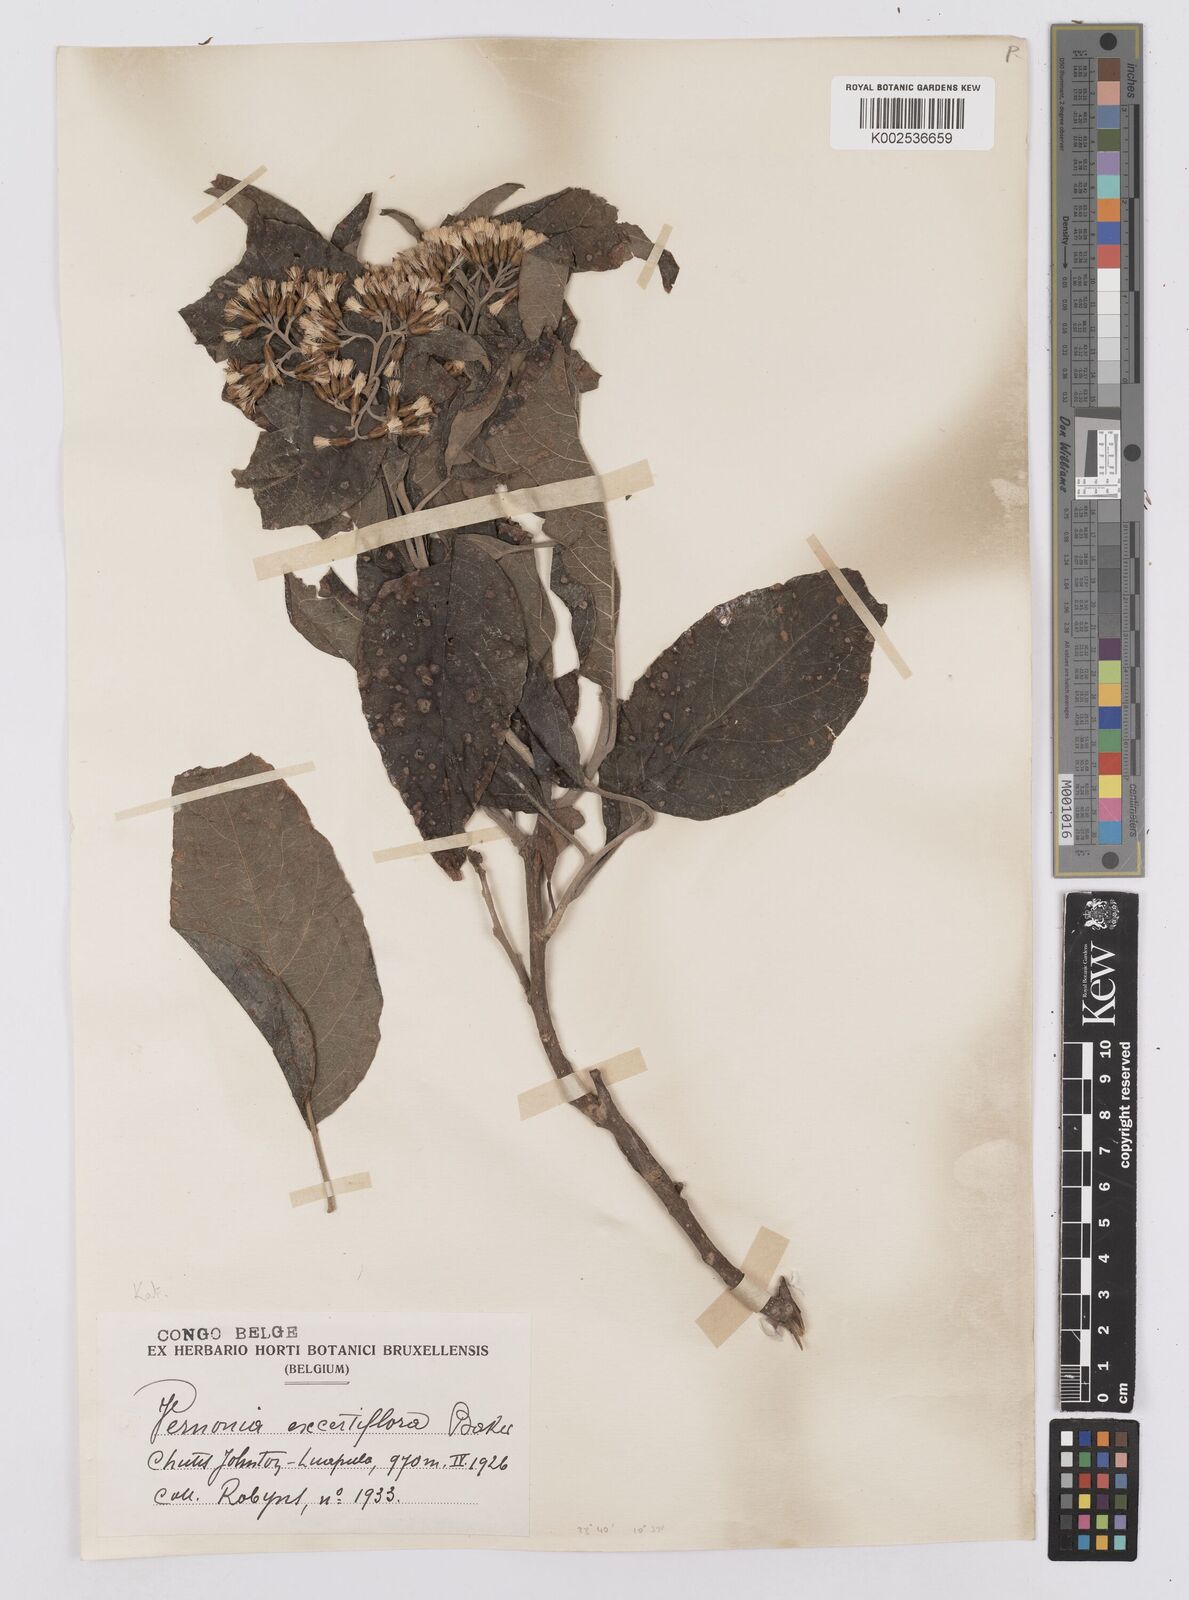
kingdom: Plantae
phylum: Tracheophyta
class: Magnoliopsida
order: Asterales
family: Asteraceae
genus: Gymnanthemum
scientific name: Gymnanthemum exsertiflorum
